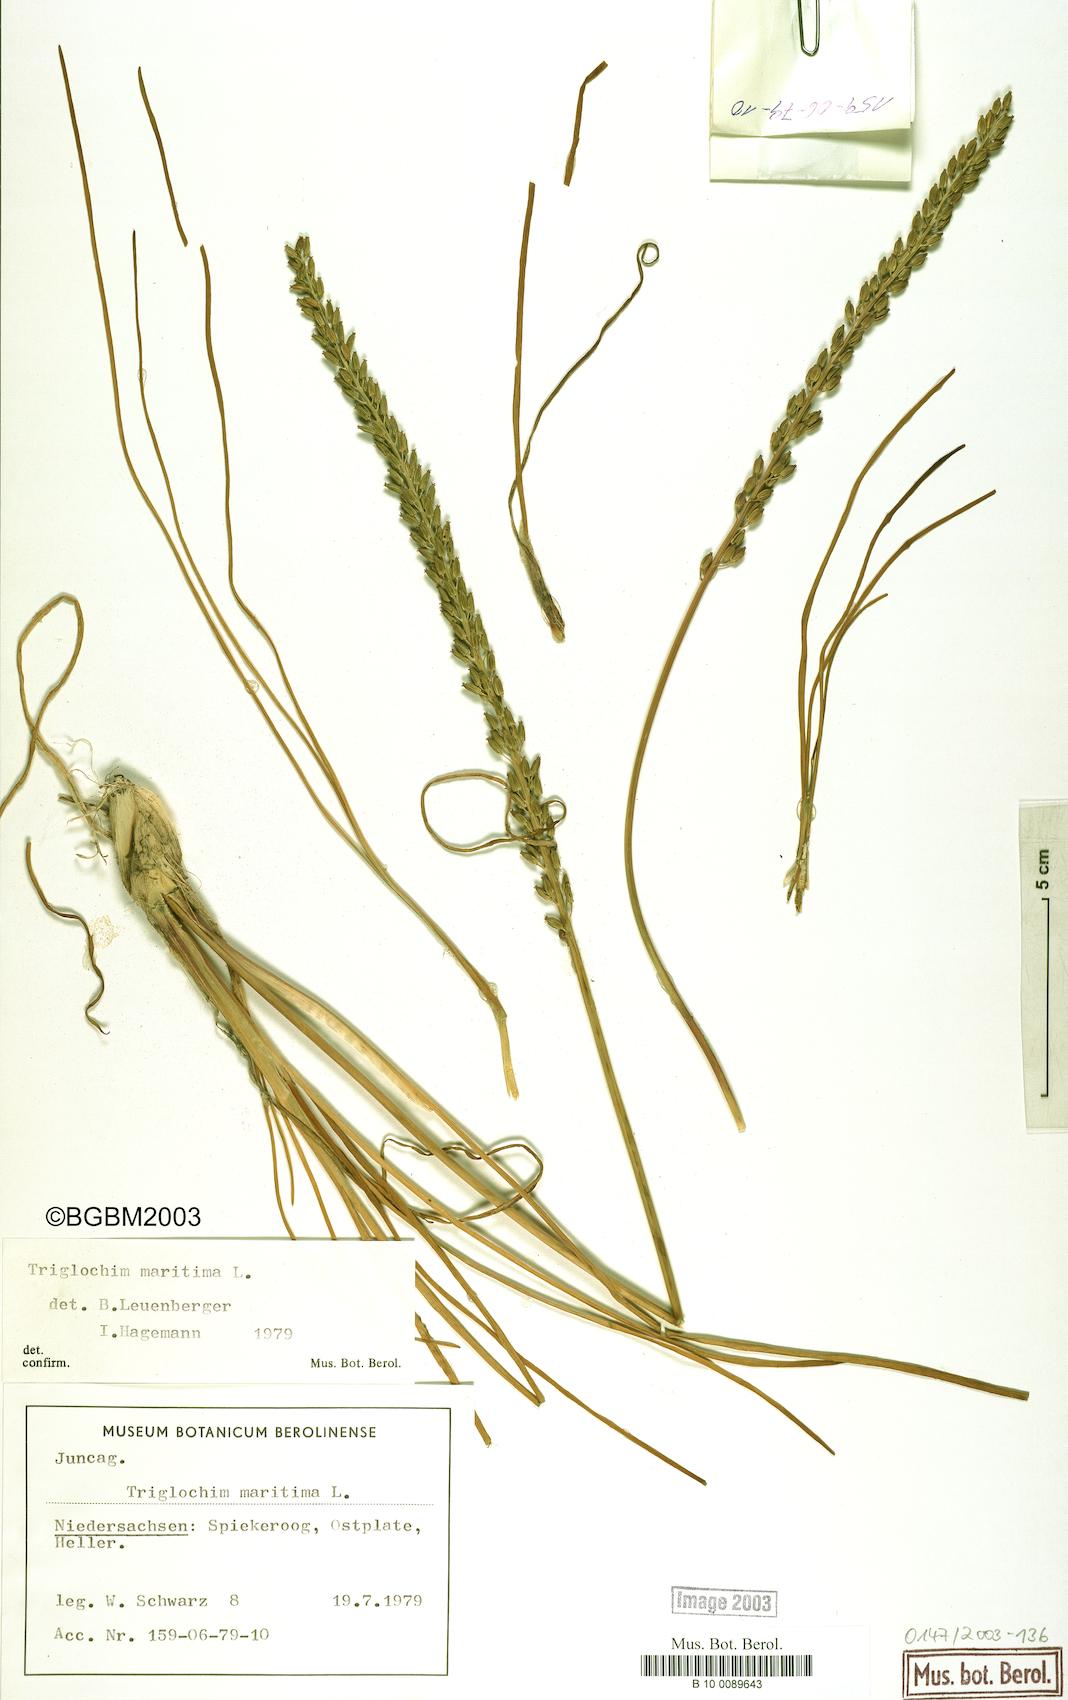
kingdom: Plantae
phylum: Tracheophyta
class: Liliopsida
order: Alismatales
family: Juncaginaceae
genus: Triglochin
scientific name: Triglochin maritima
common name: Sea arrowgrass
